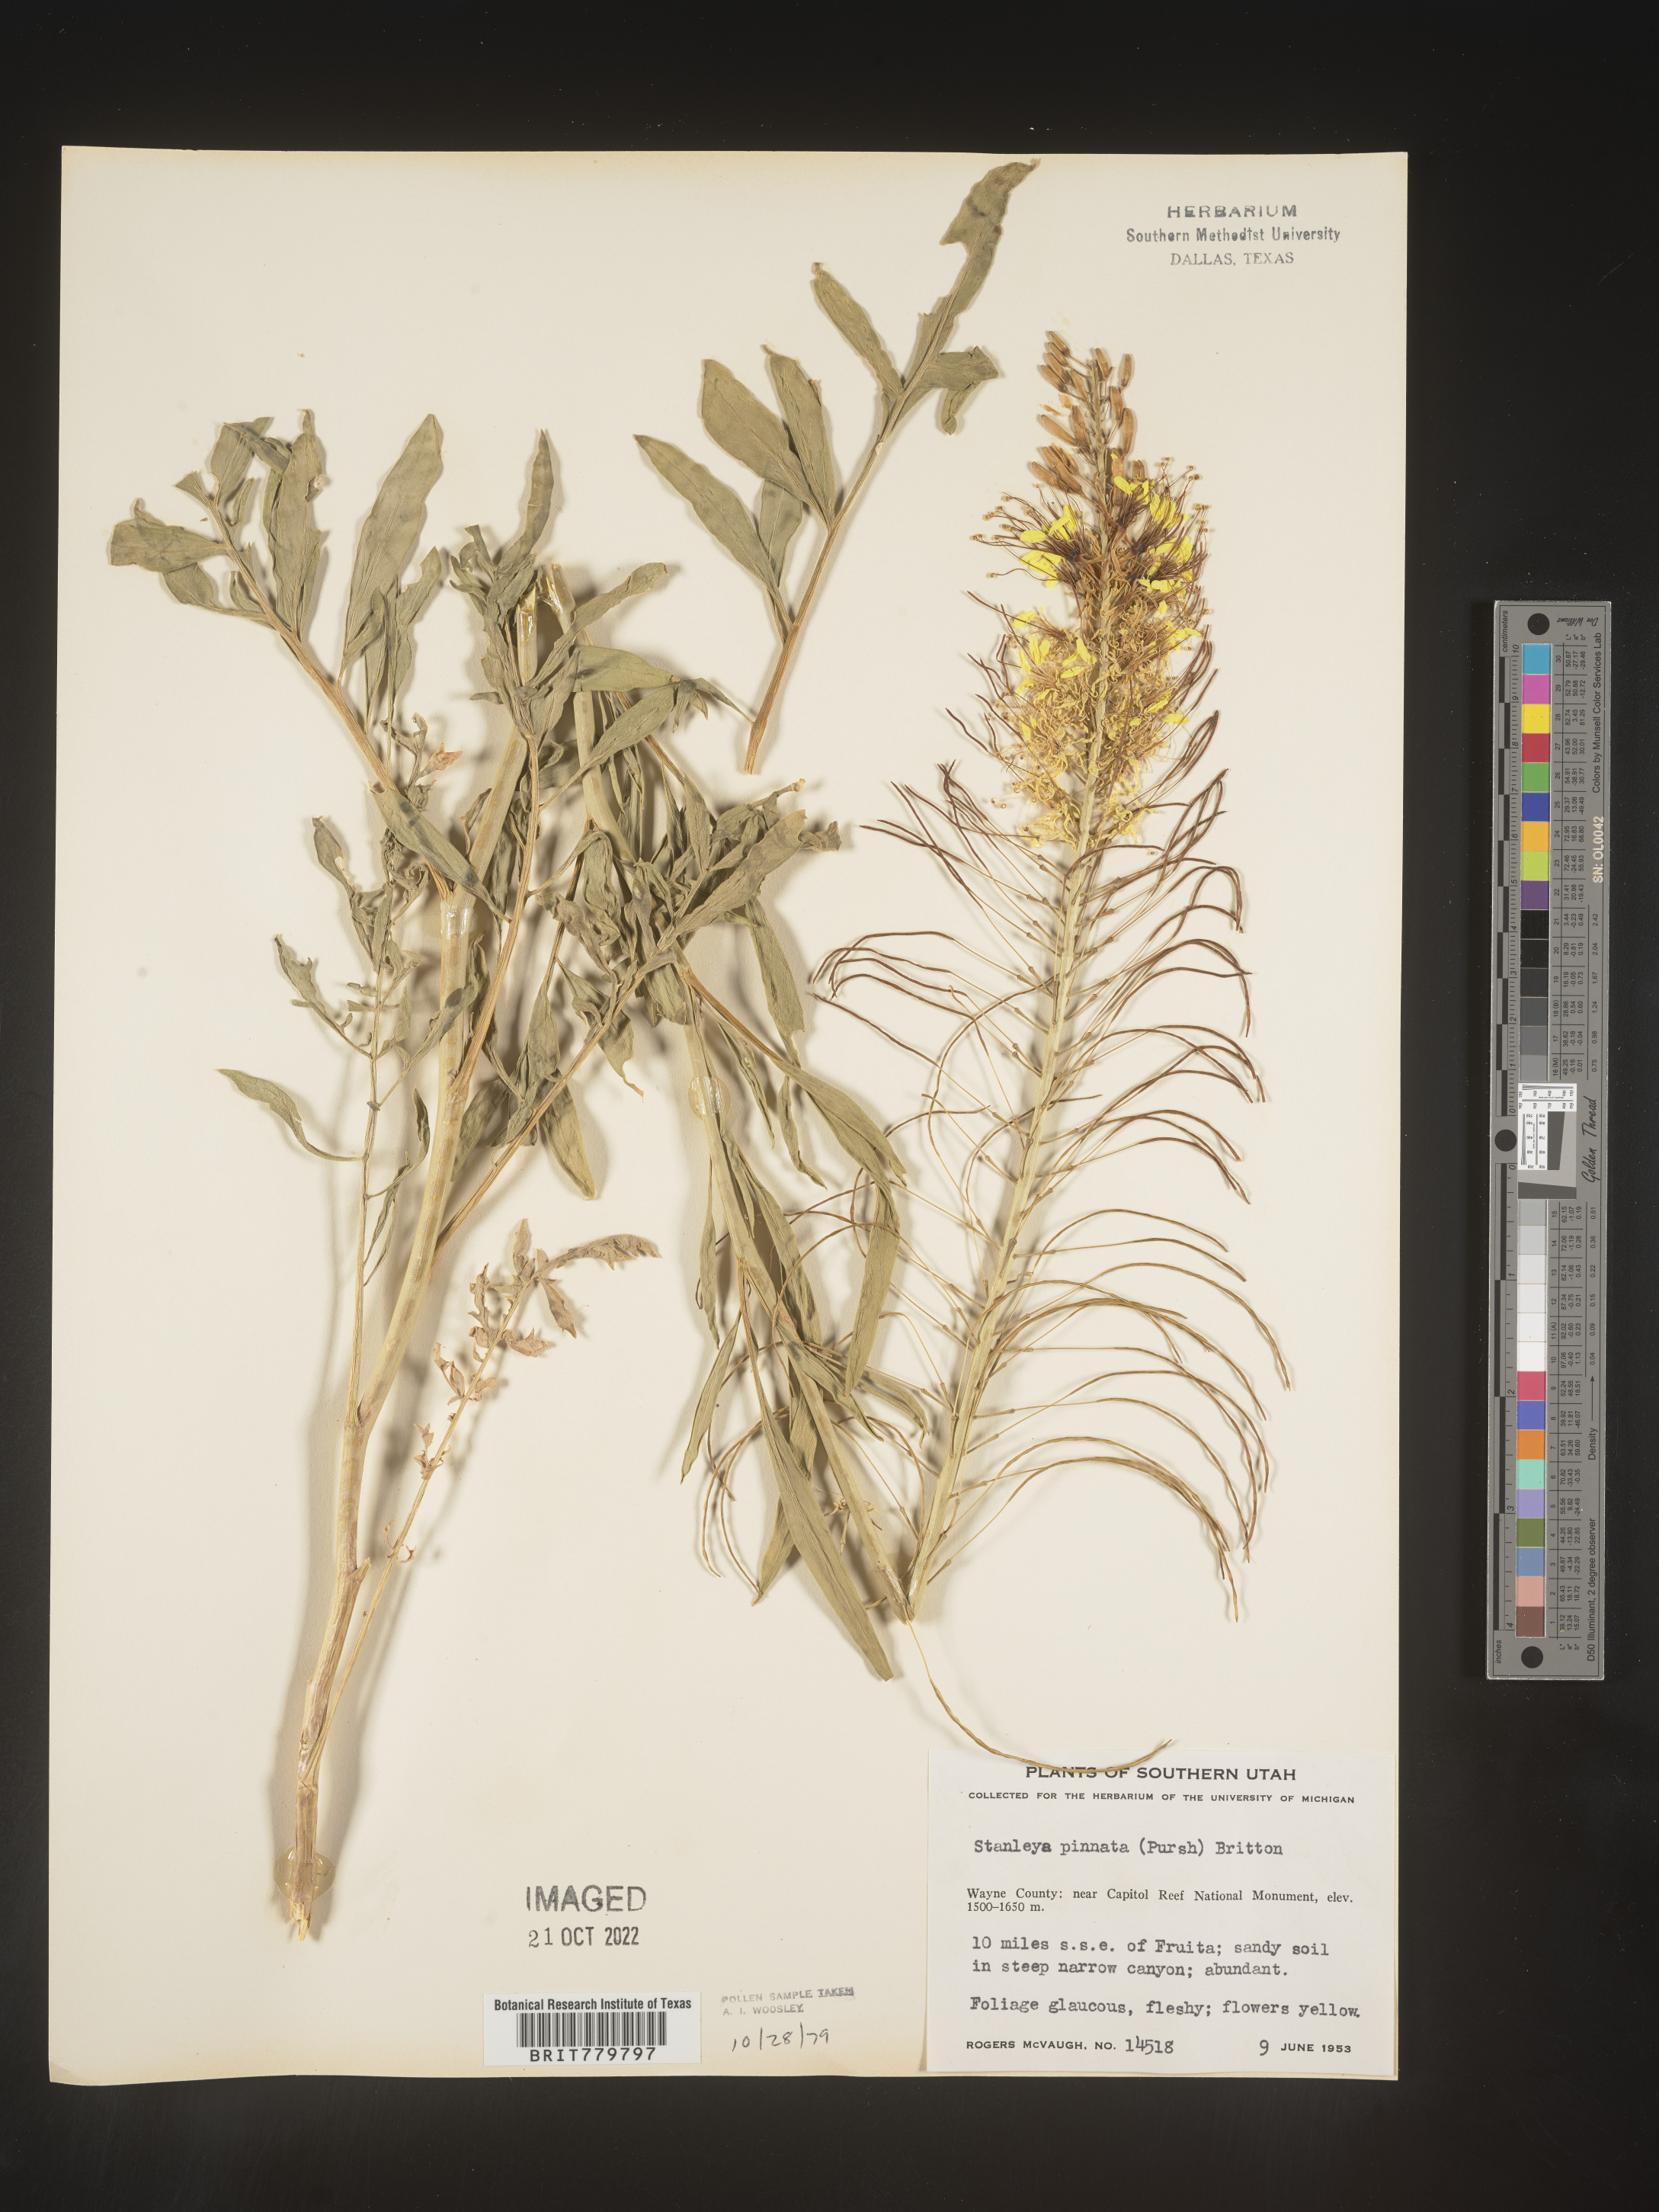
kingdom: Plantae
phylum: Tracheophyta
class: Magnoliopsida
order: Brassicales
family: Brassicaceae
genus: Stanleya
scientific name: Stanleya pinnata
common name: Prince's-plume
